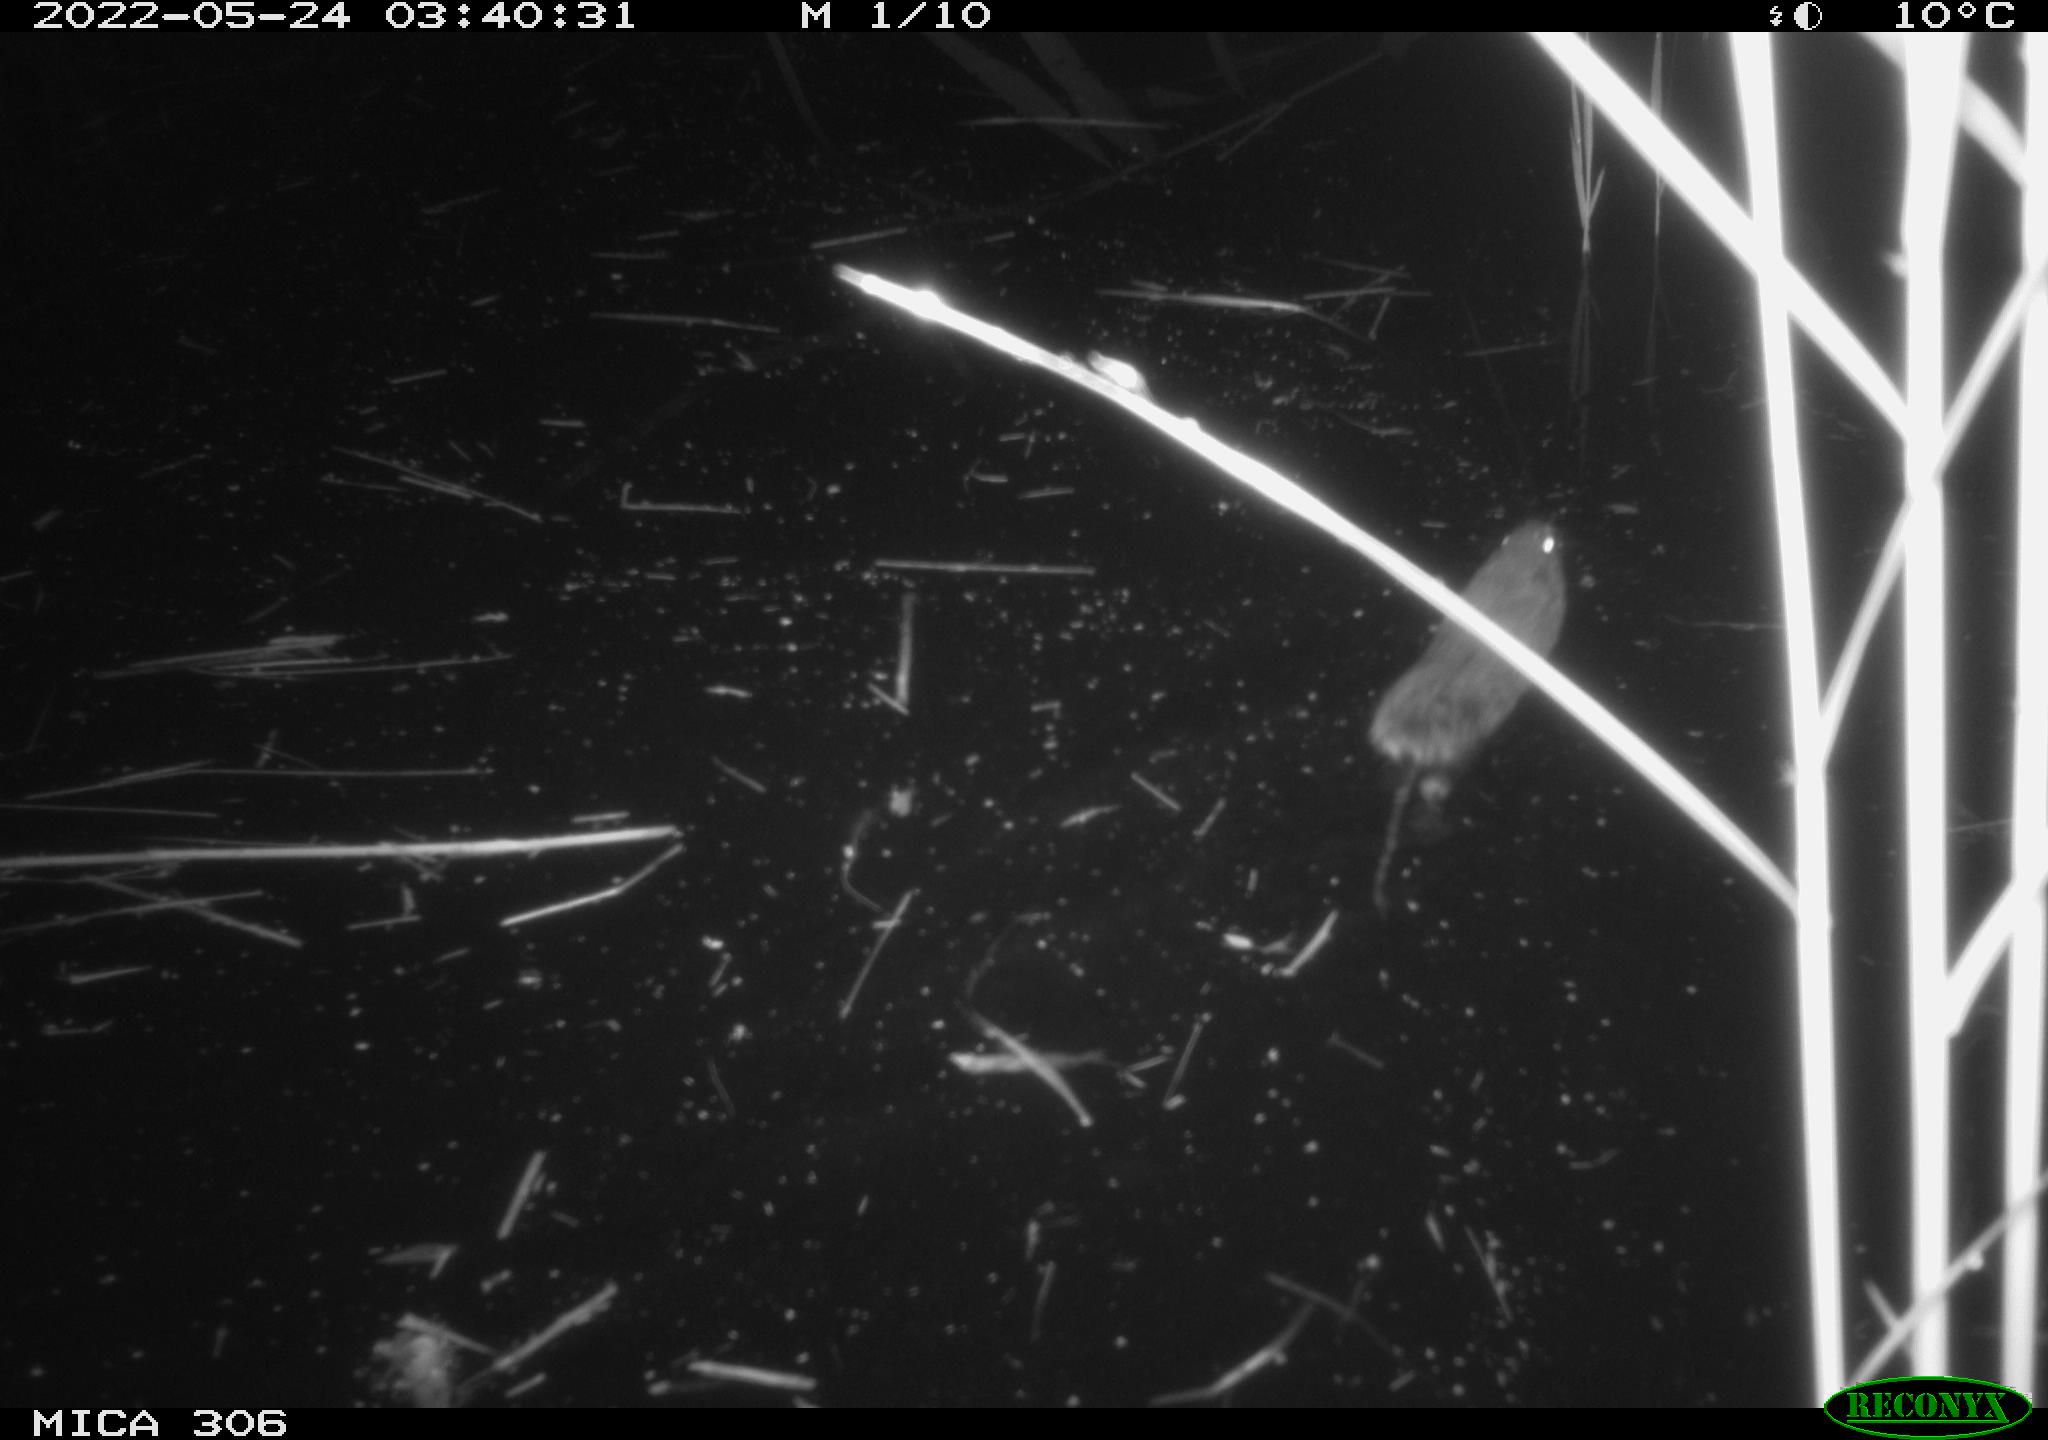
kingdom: Animalia
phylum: Chordata
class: Mammalia
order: Rodentia
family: Muridae
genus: Rattus
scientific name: Rattus norvegicus
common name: Brown rat
